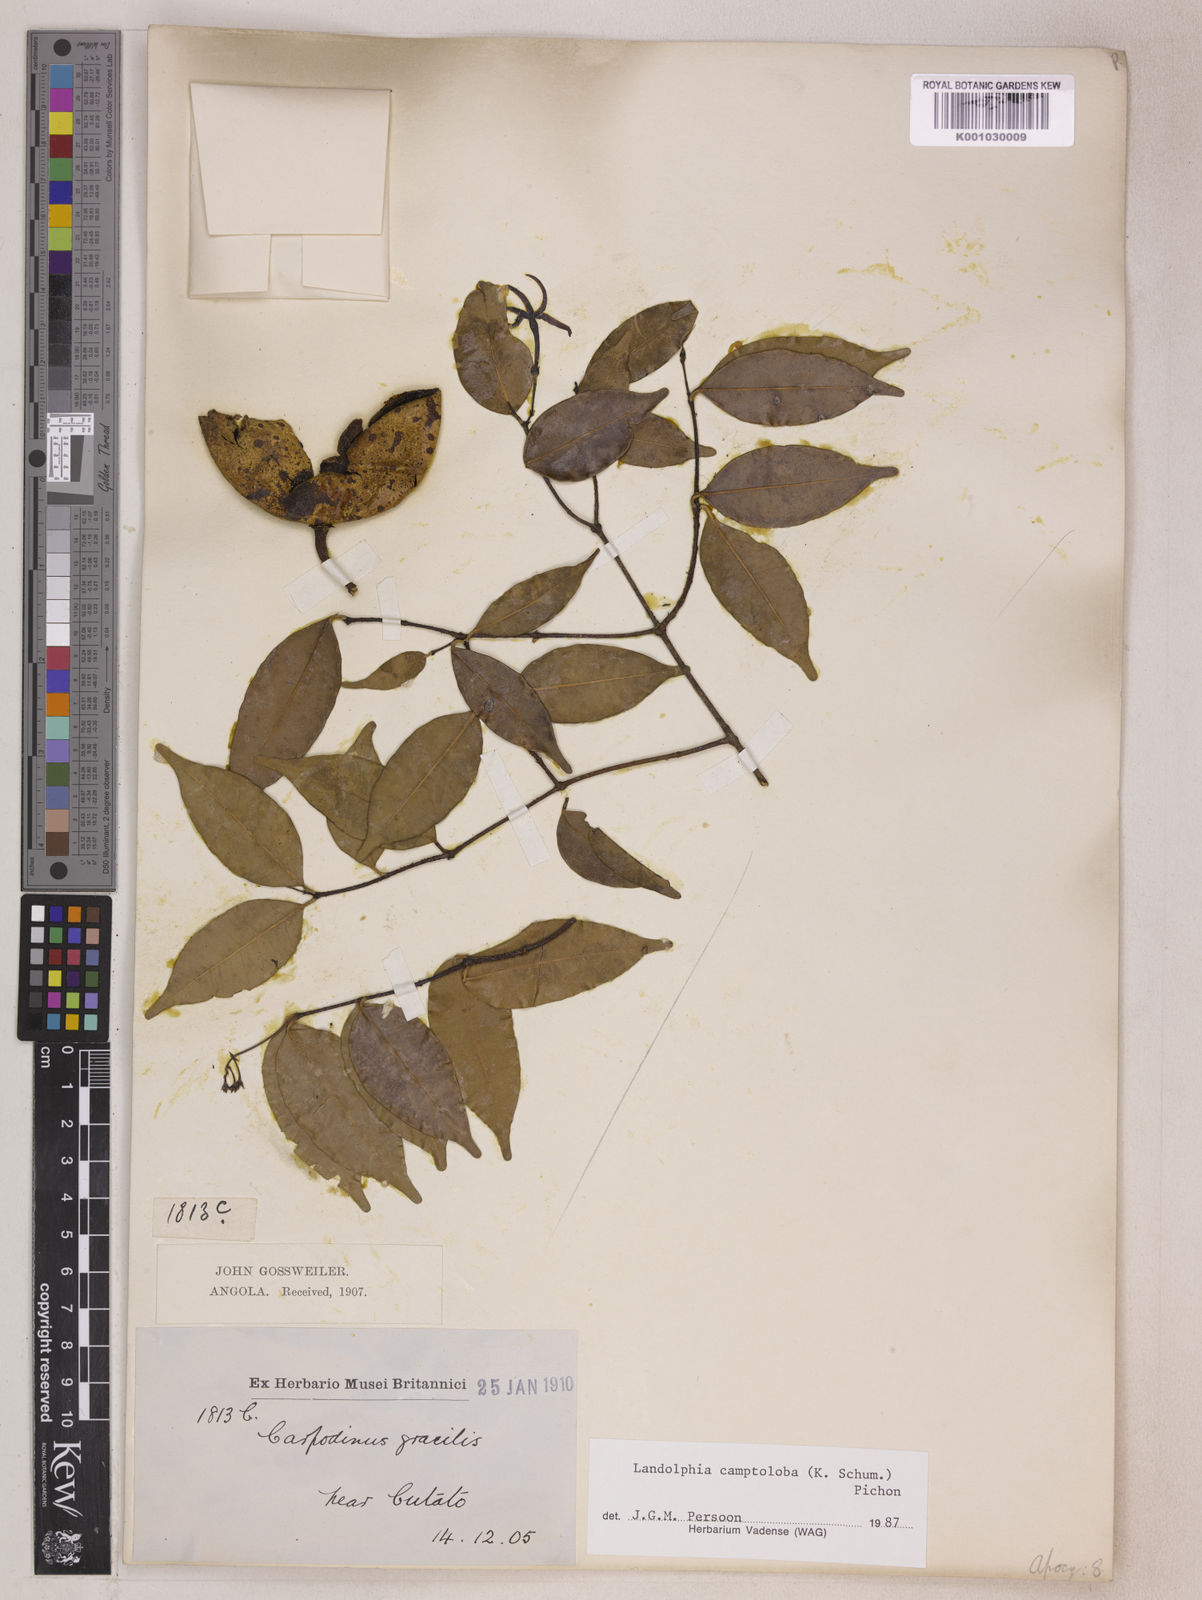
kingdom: Plantae
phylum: Tracheophyta
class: Magnoliopsida
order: Gentianales
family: Apocynaceae
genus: Landolphia
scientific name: Landolphia camptoloba
